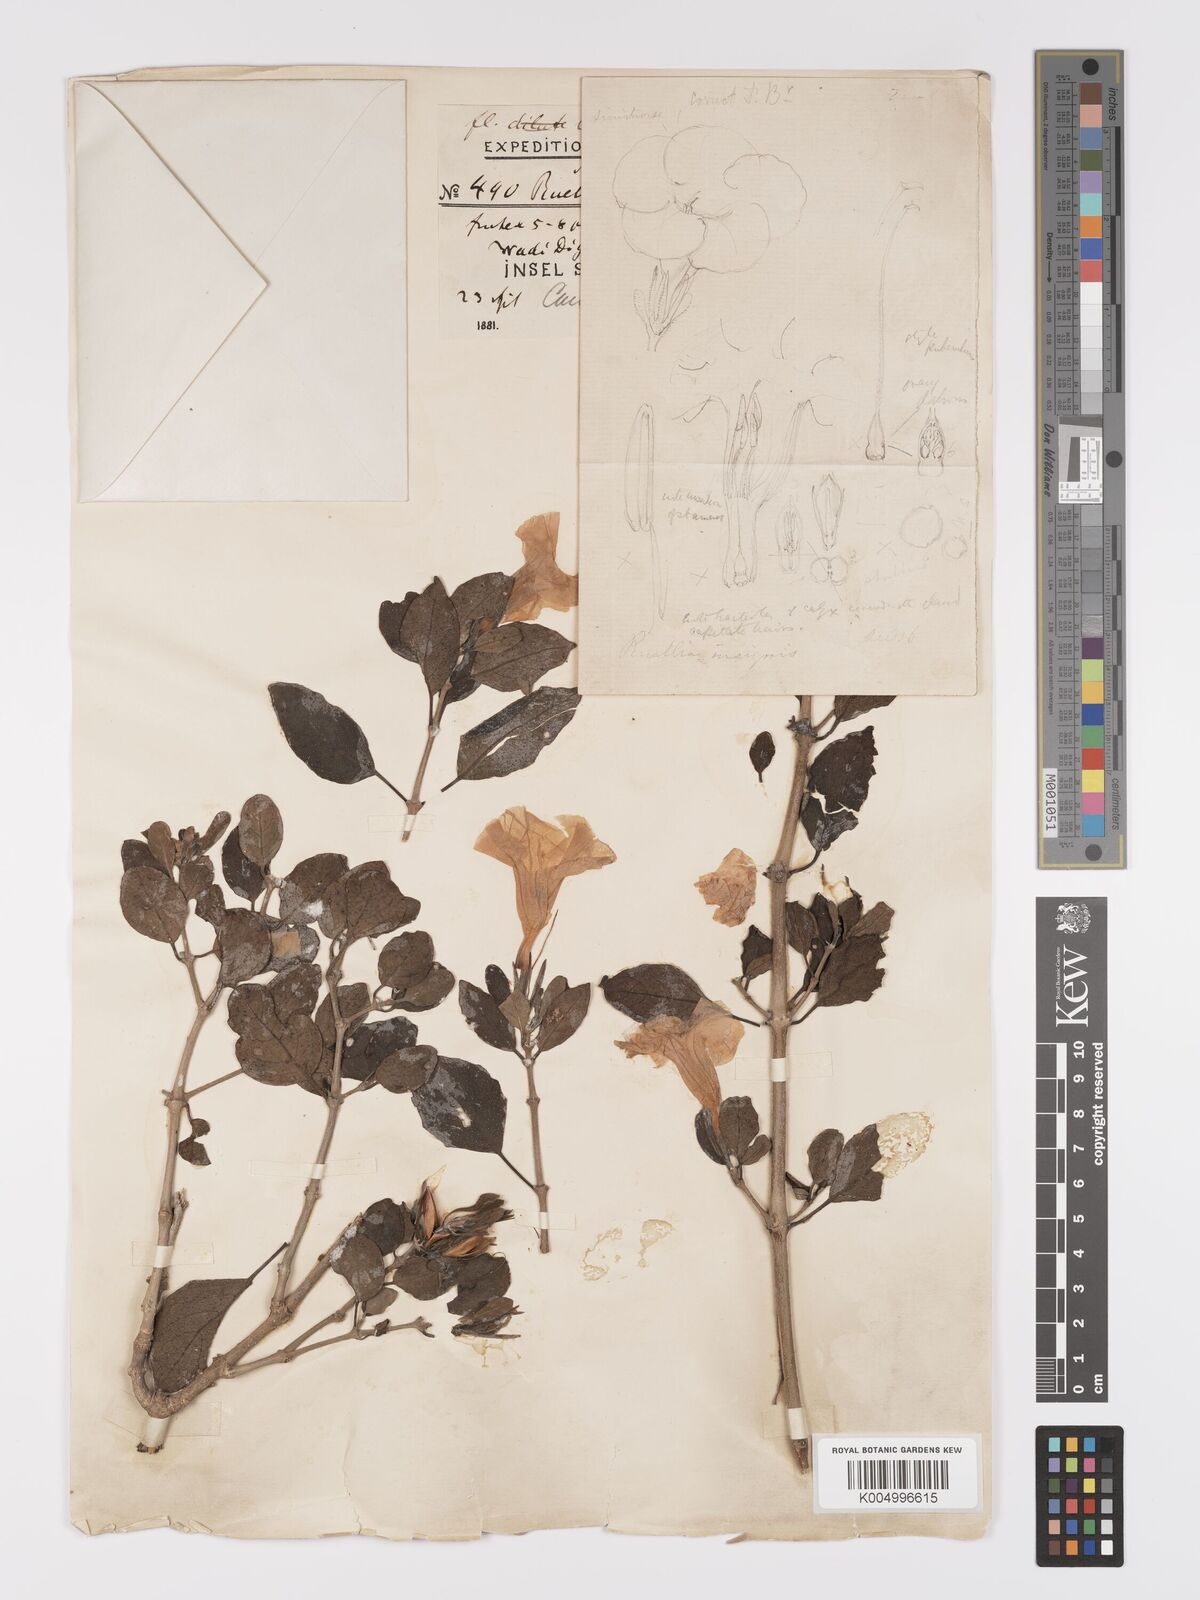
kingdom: Plantae
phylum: Tracheophyta
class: Magnoliopsida
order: Lamiales
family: Acanthaceae
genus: Ruellia
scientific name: Ruellia insignis
